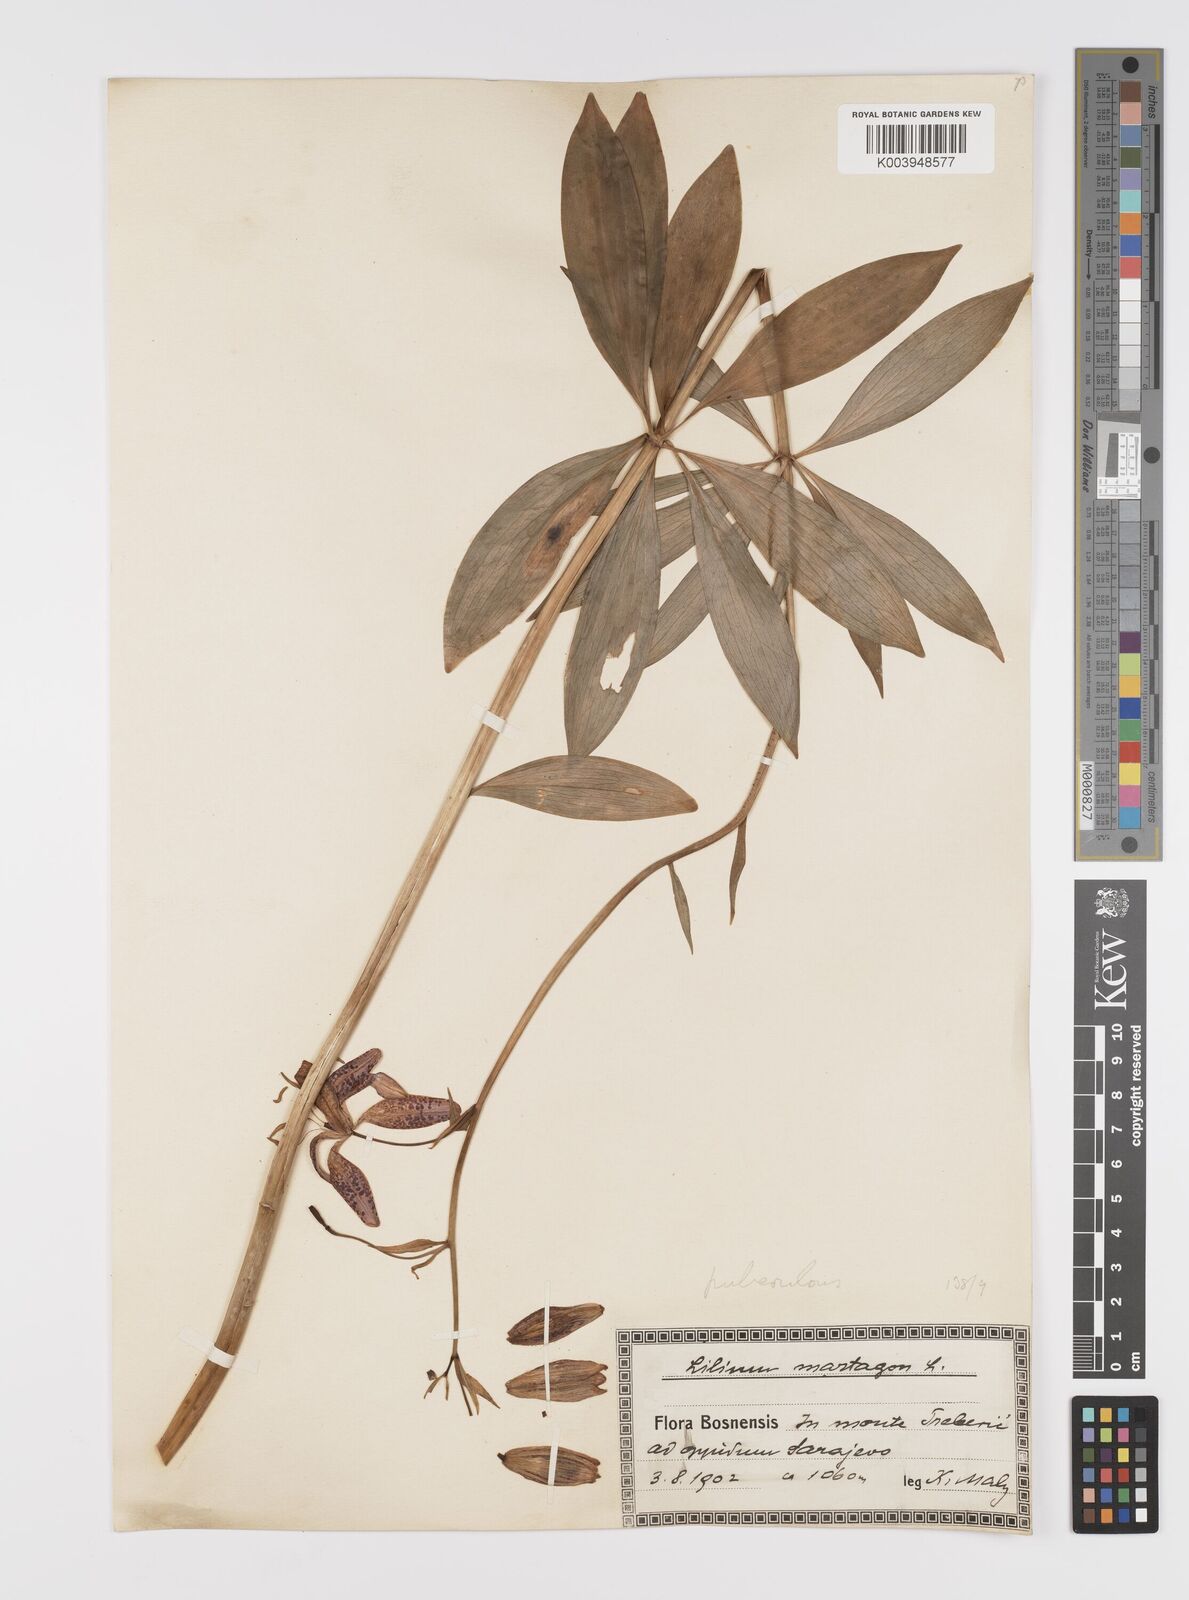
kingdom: Plantae
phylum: Tracheophyta
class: Liliopsida
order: Liliales
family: Liliaceae
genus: Lilium
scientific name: Lilium
